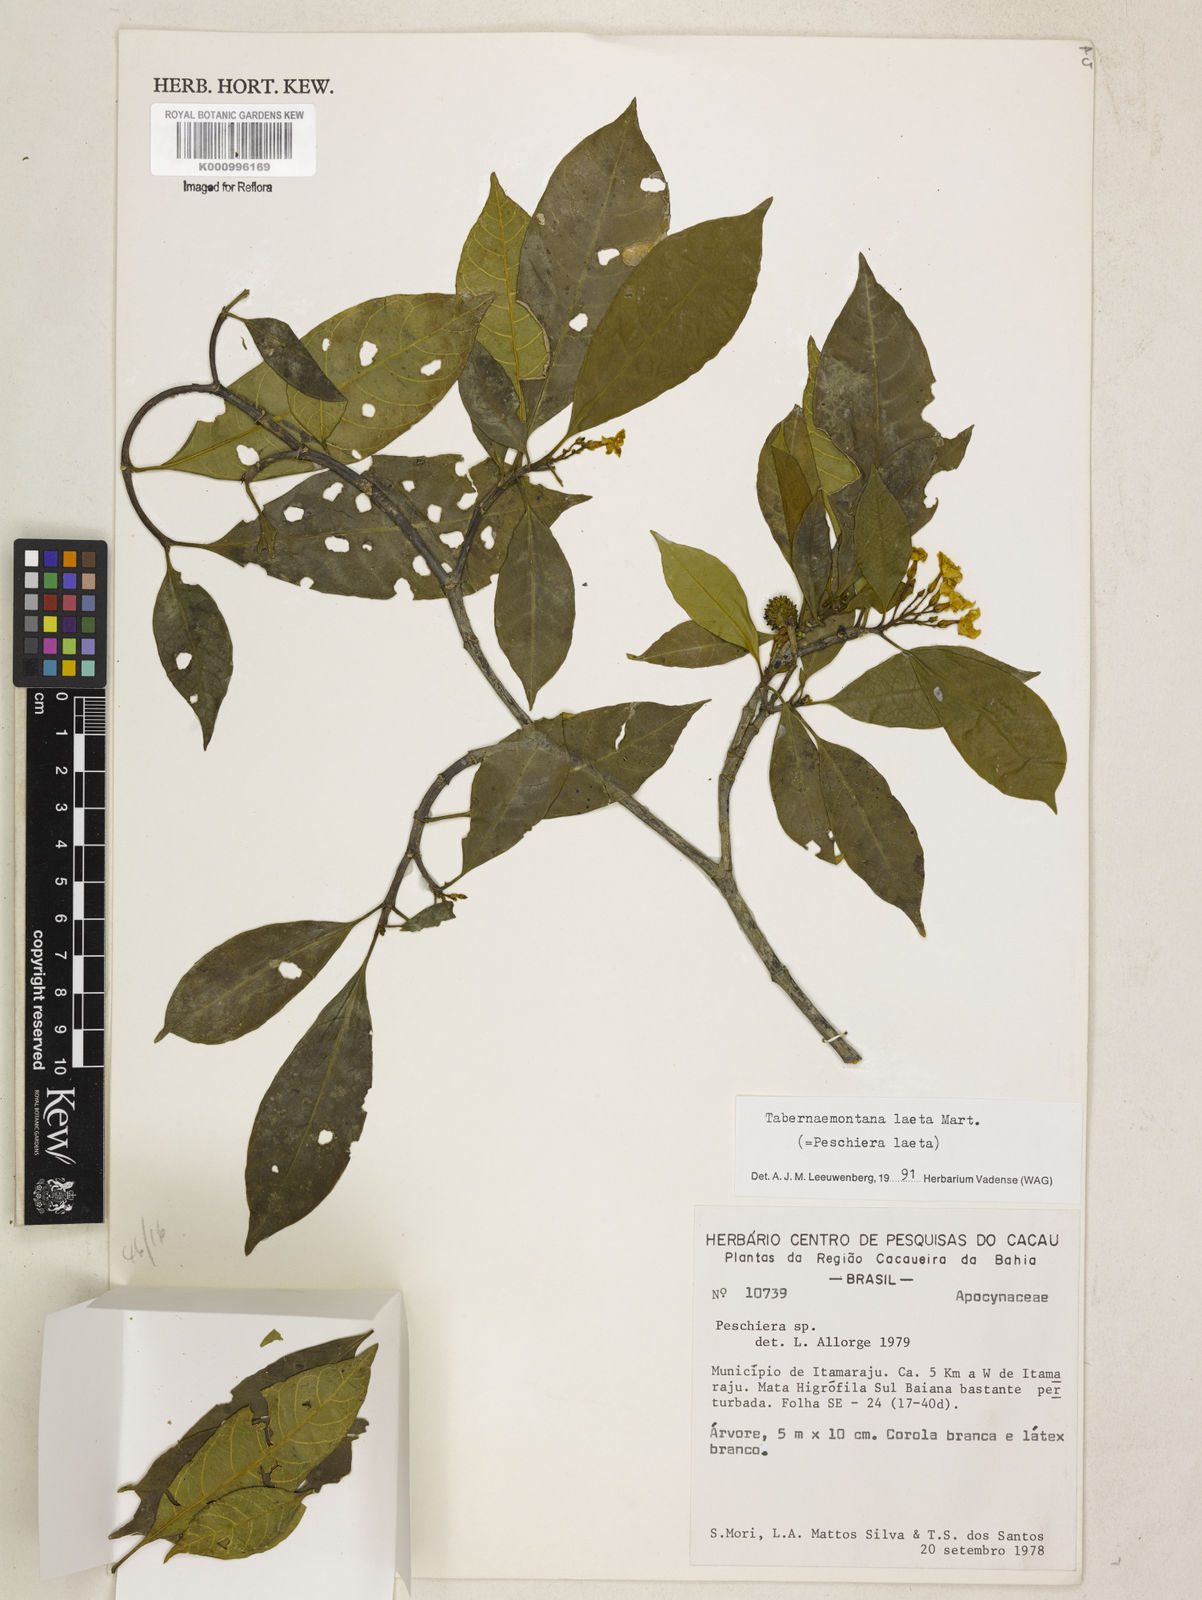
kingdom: Plantae
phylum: Tracheophyta
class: Magnoliopsida
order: Gentianales
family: Apocynaceae
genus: Tabernaemontana
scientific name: Tabernaemontana laeta
